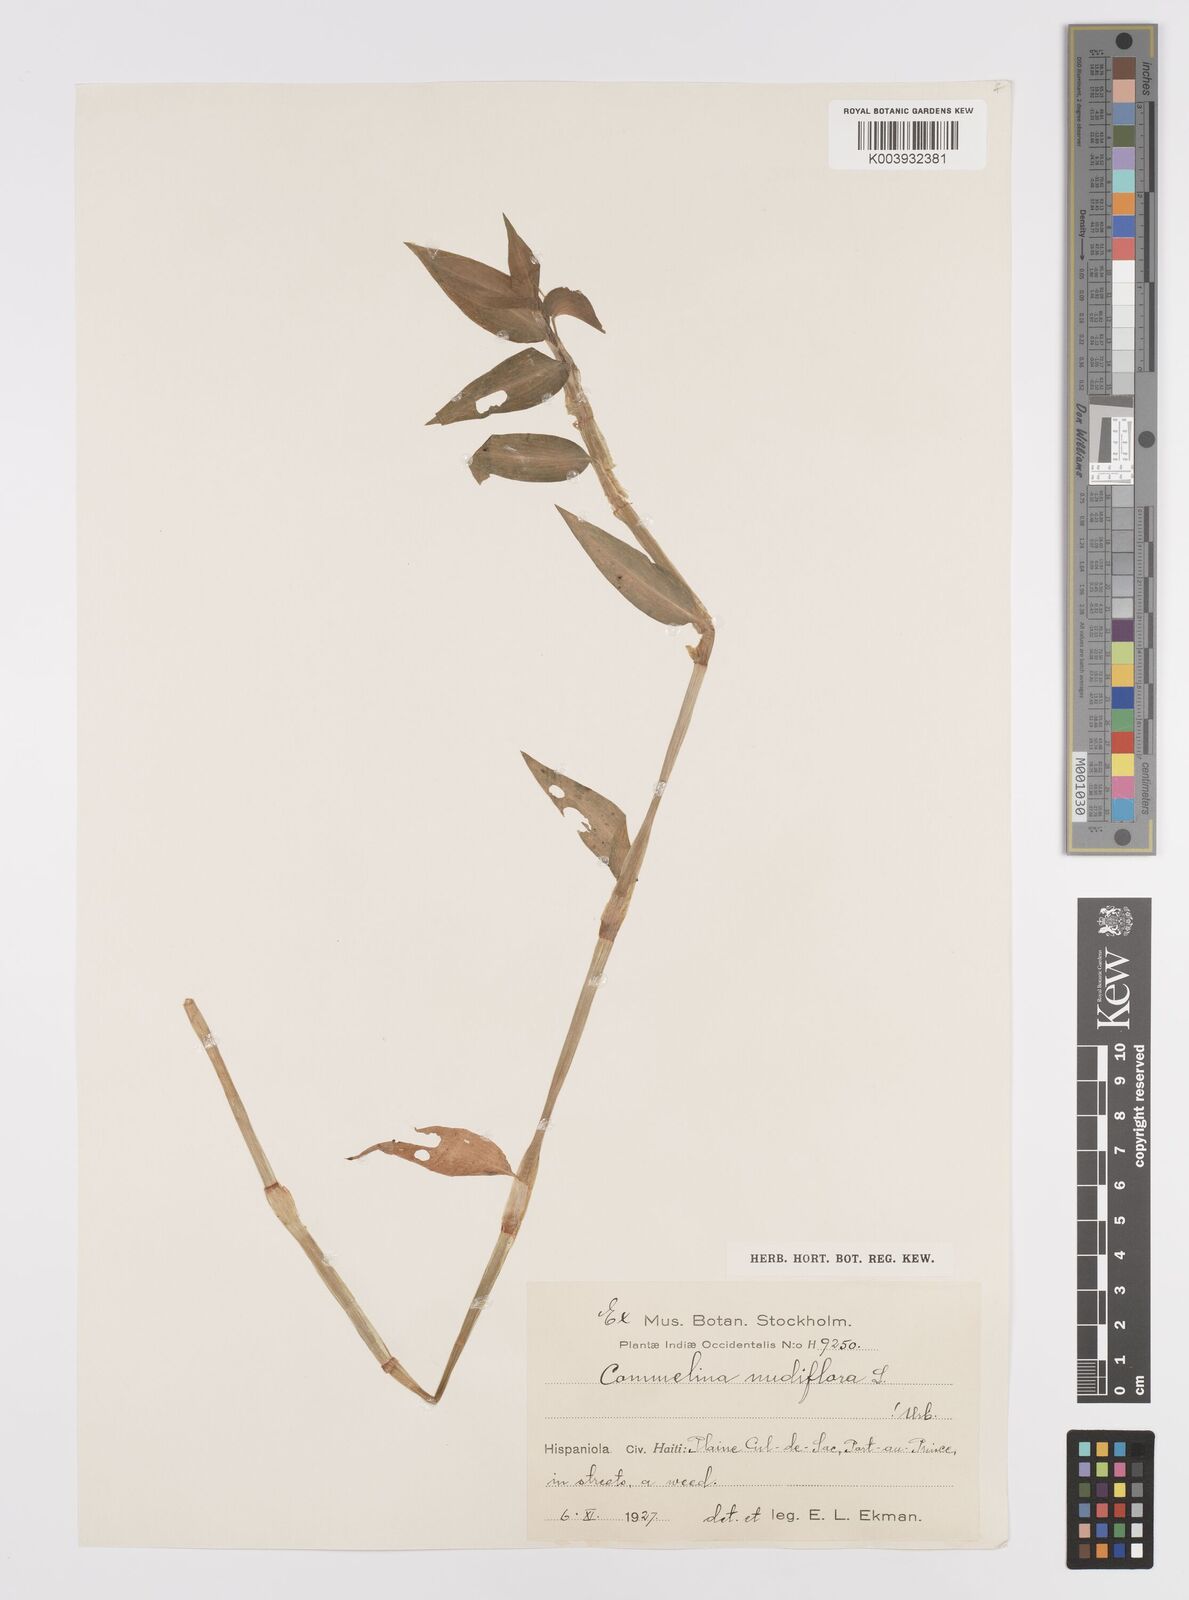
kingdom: Plantae
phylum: Tracheophyta
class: Liliopsida
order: Commelinales
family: Commelinaceae
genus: Commelina
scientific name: Commelina
